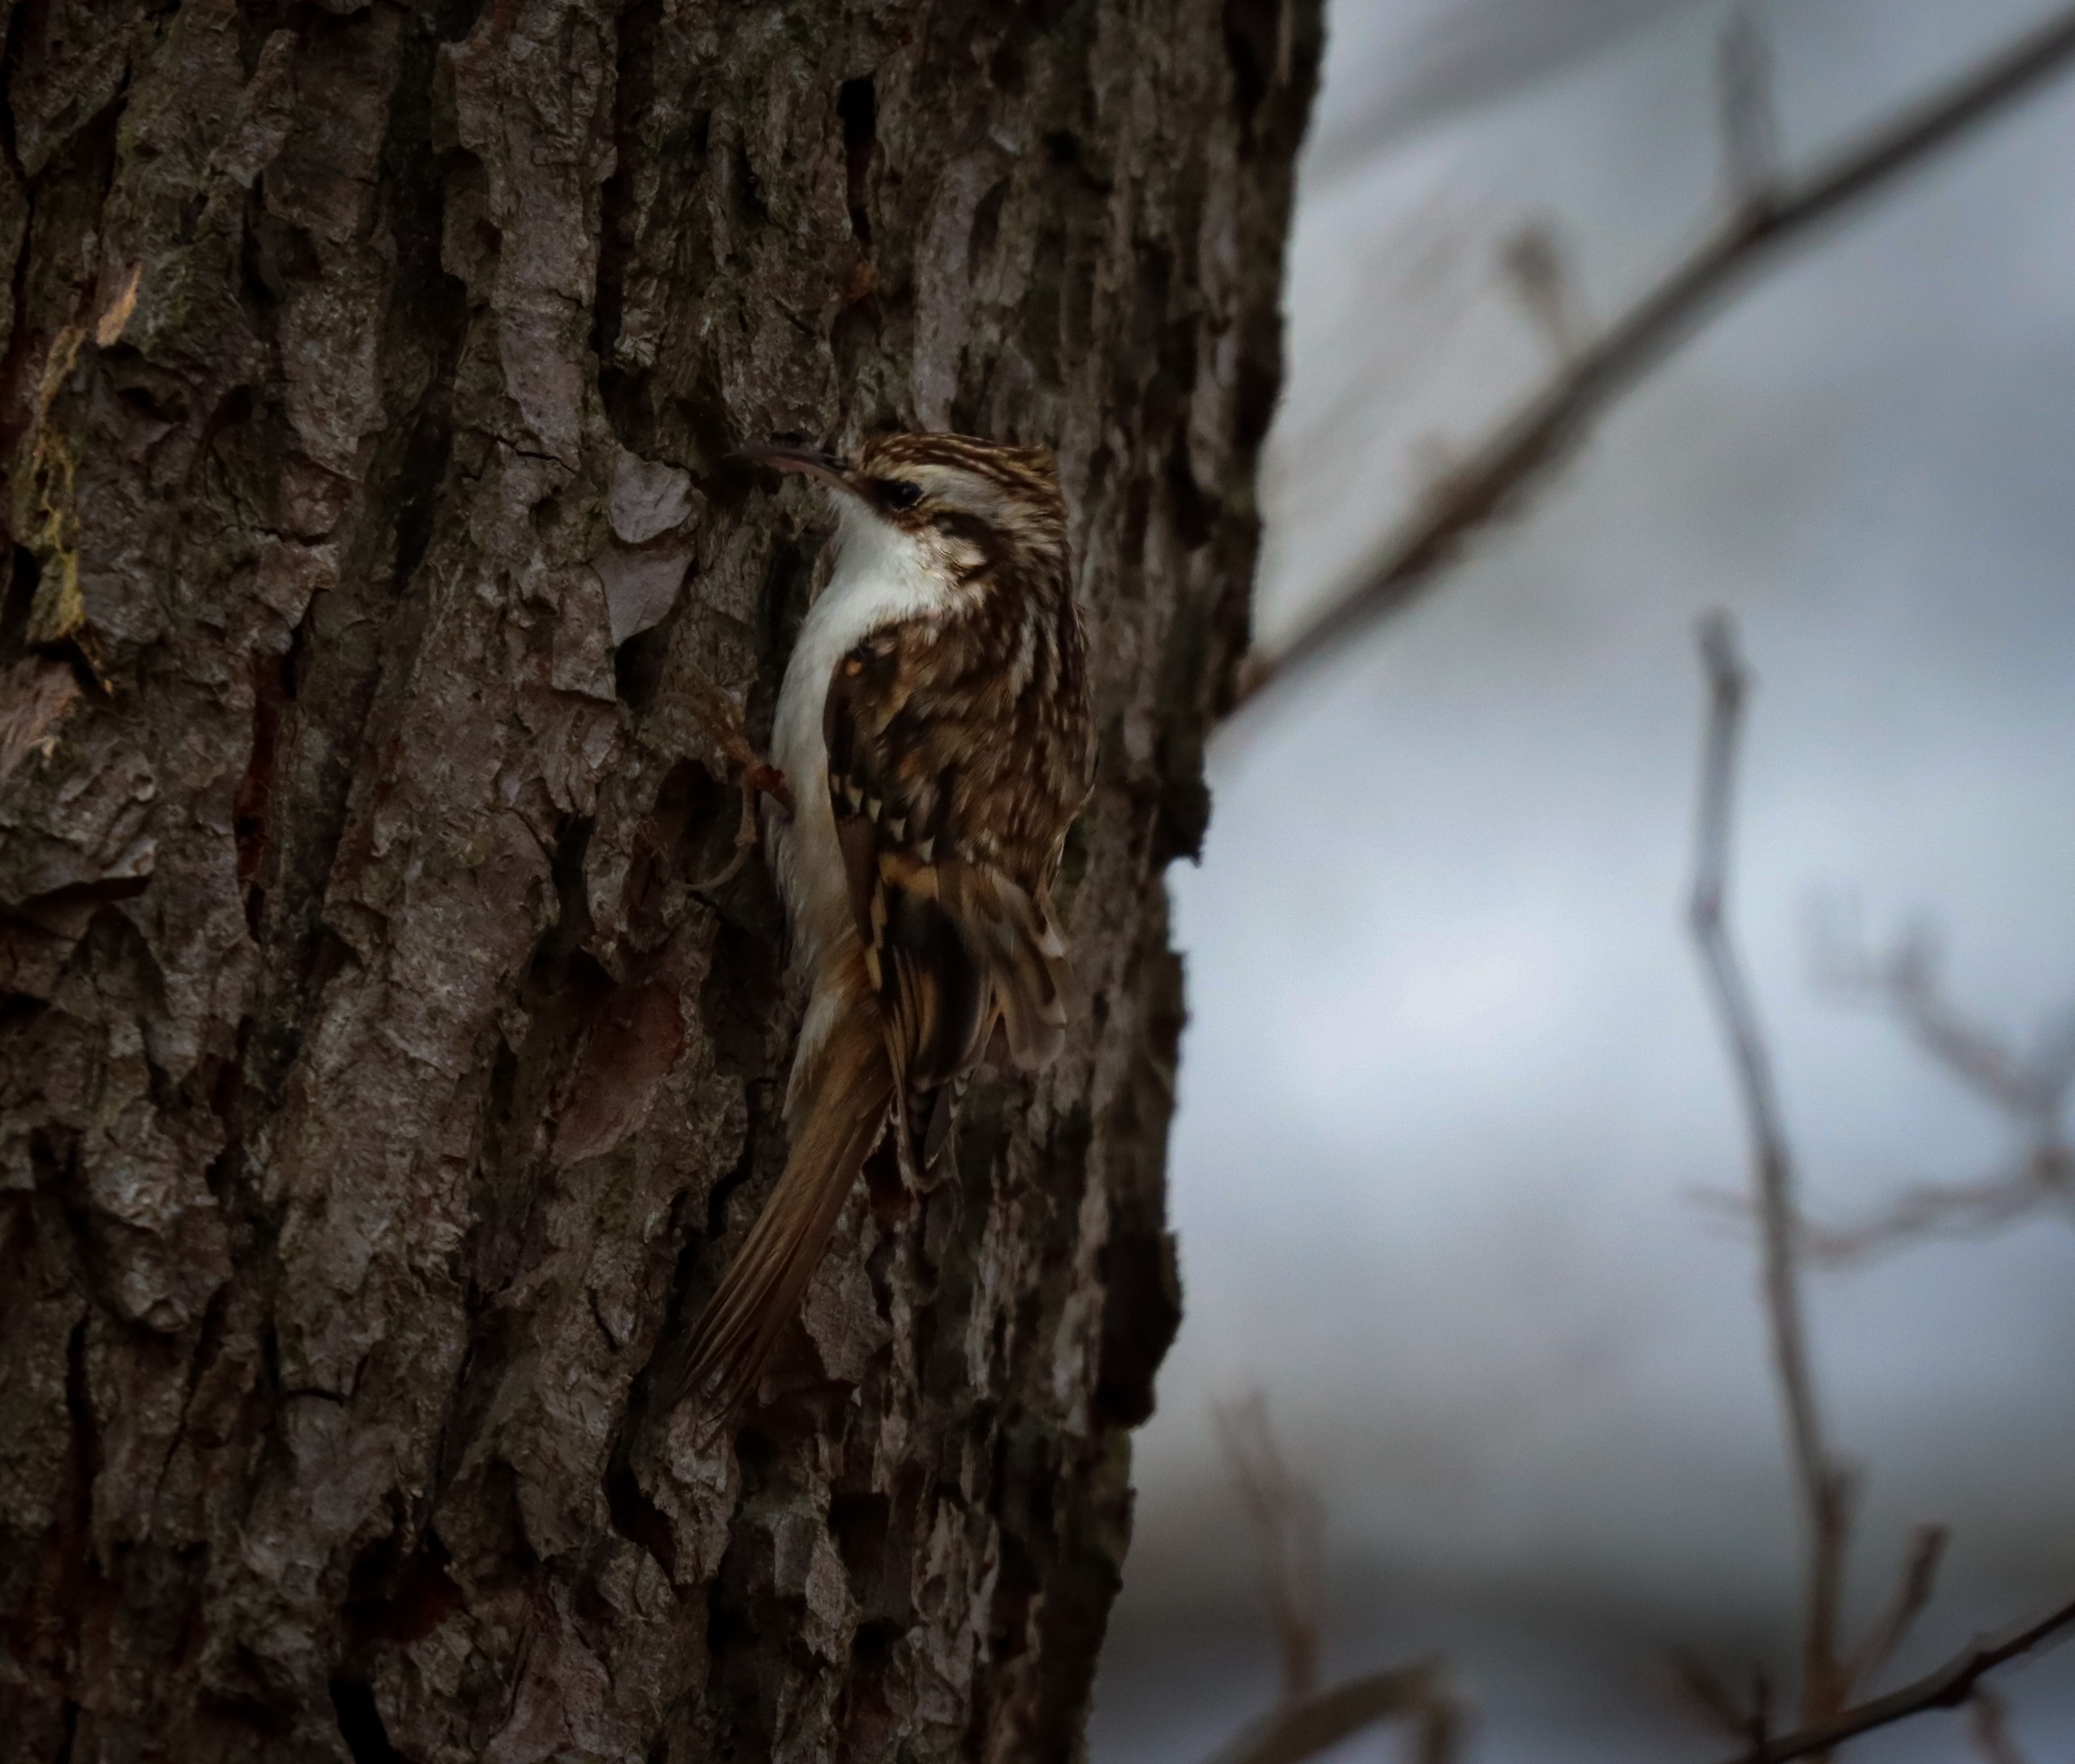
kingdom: Animalia
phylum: Chordata
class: Aves
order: Passeriformes
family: Certhiidae
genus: Certhia
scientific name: Certhia familiaris
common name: Træløber
